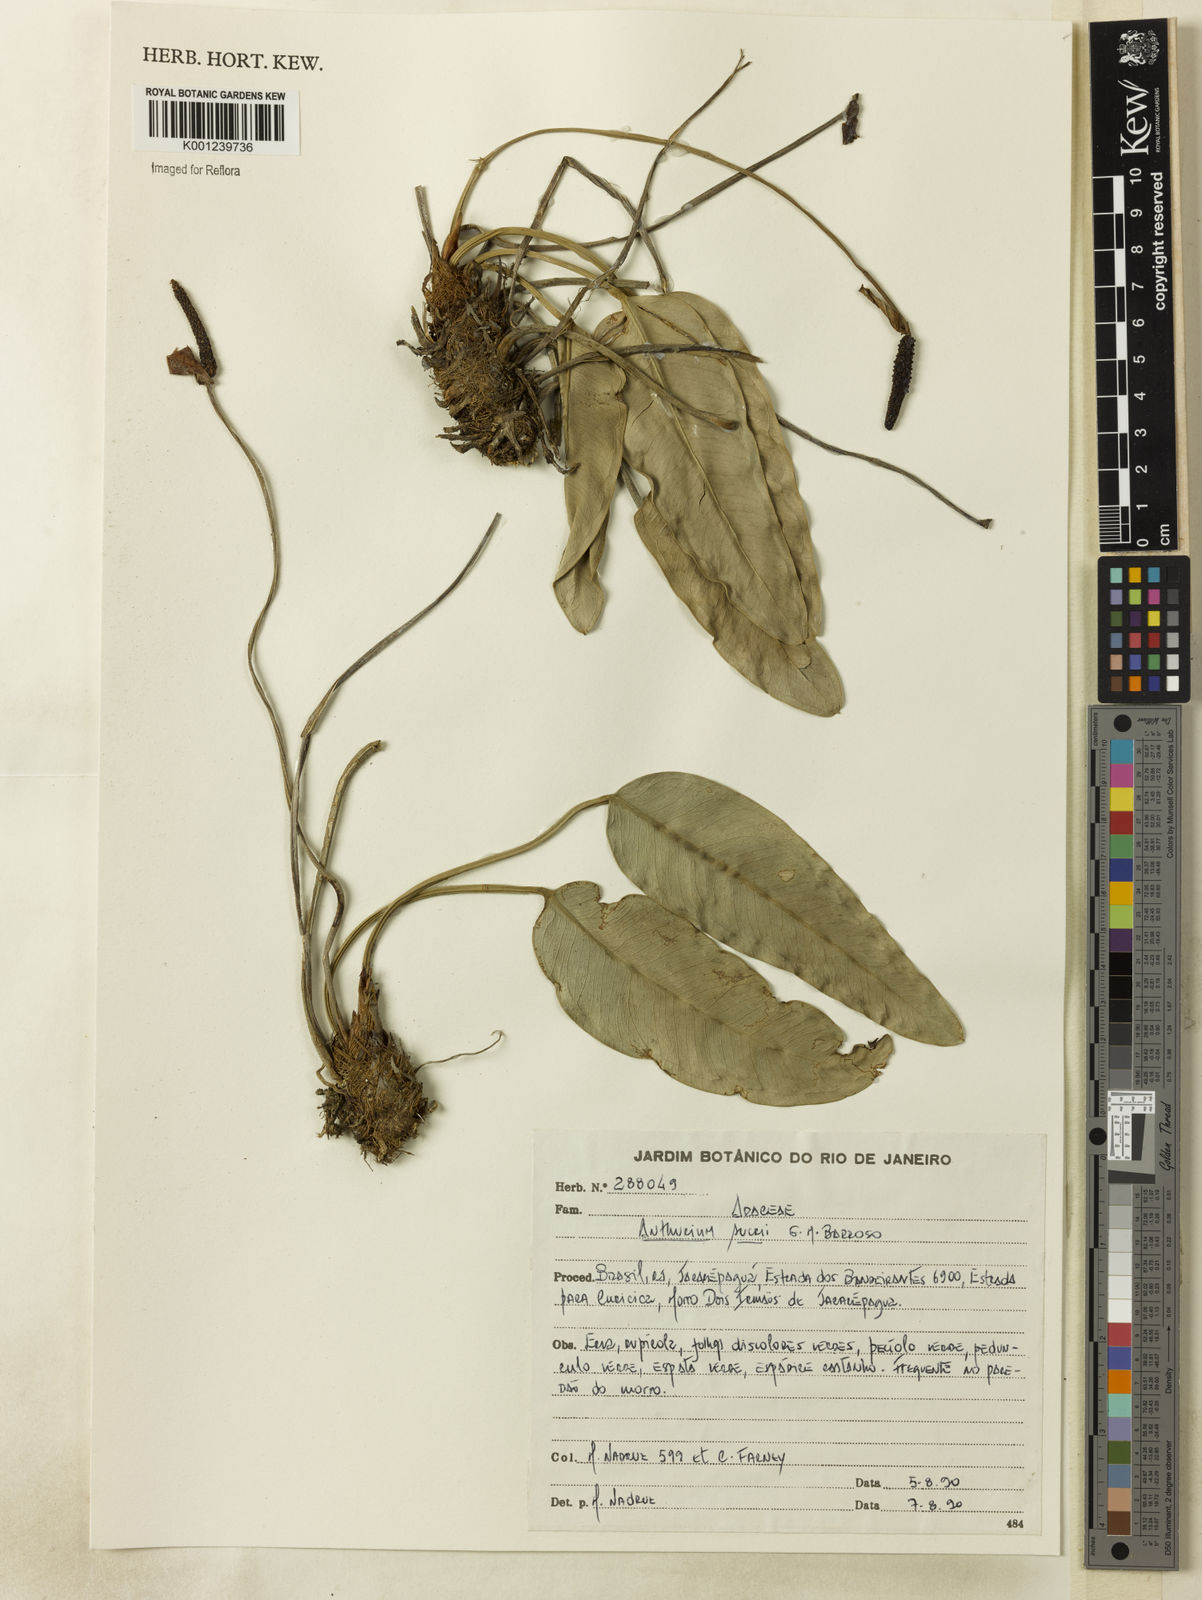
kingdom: Plantae
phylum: Tracheophyta
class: Liliopsida
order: Alismatales
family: Araceae
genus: Anthurium
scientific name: Anthurium sucrii
